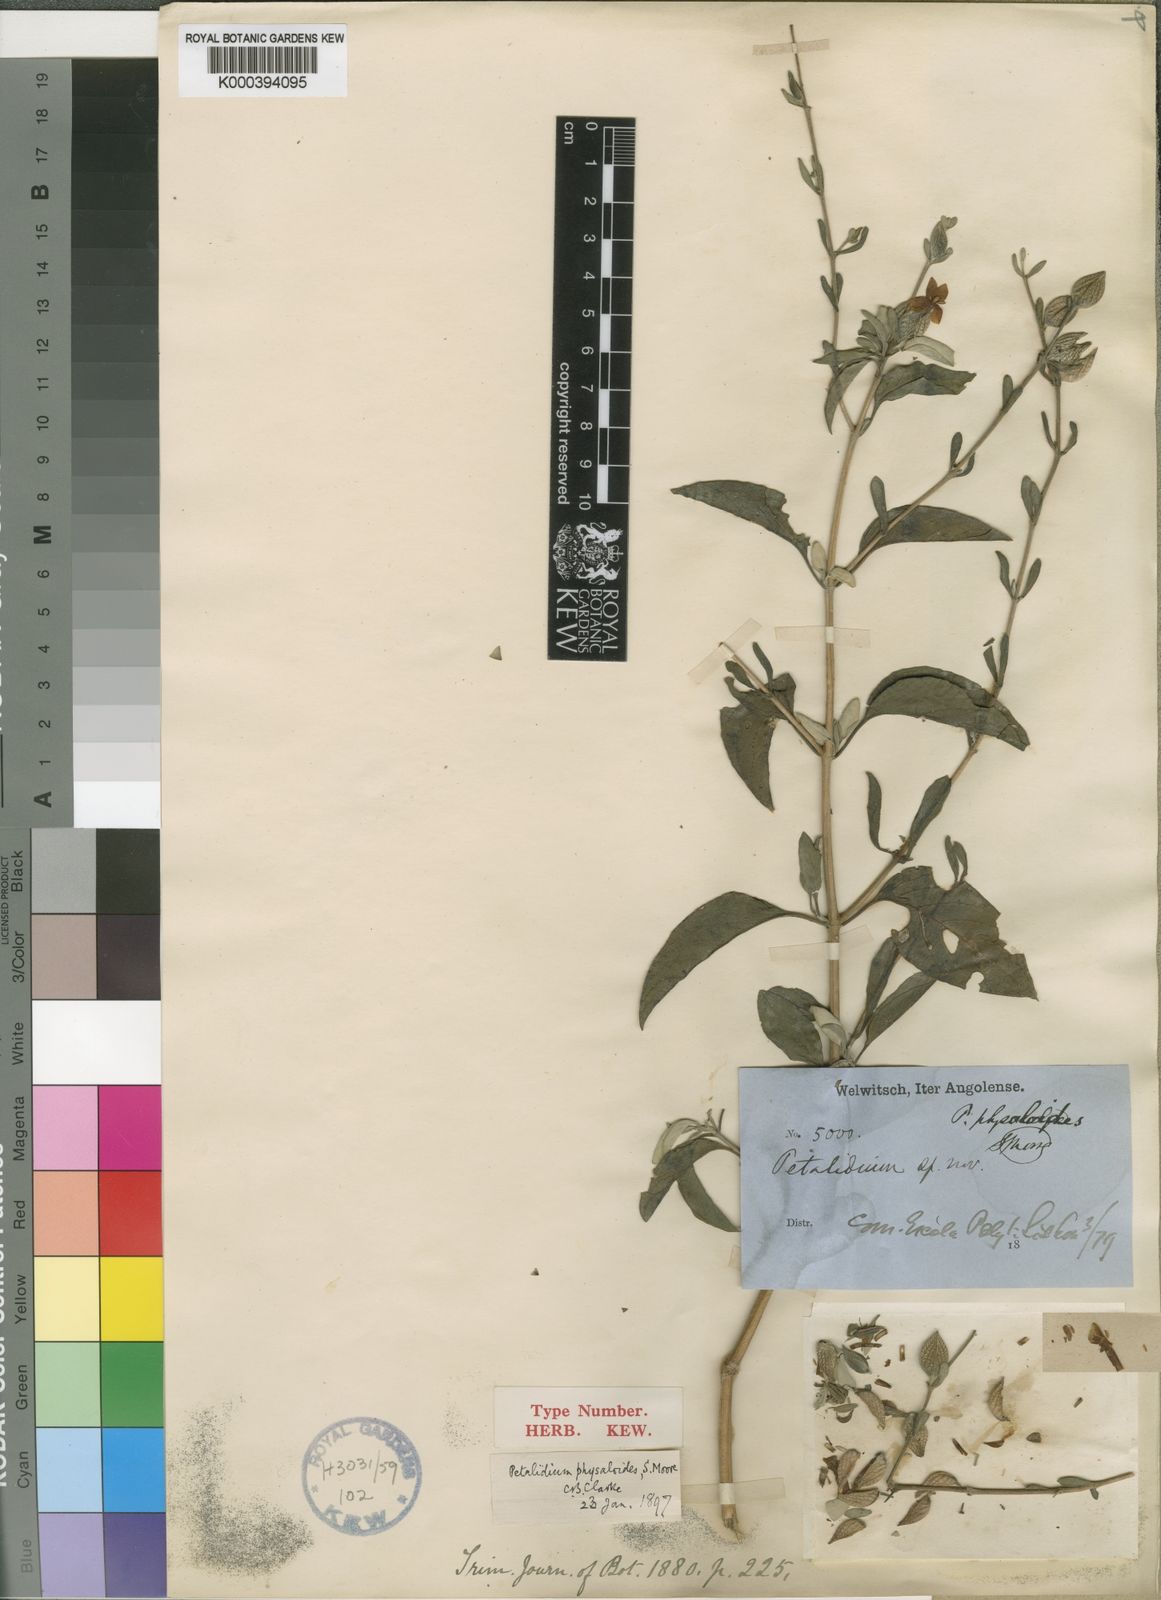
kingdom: Plantae
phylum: Tracheophyta
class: Magnoliopsida
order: Lamiales
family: Acanthaceae
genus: Petalidium
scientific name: Petalidium physaloides
